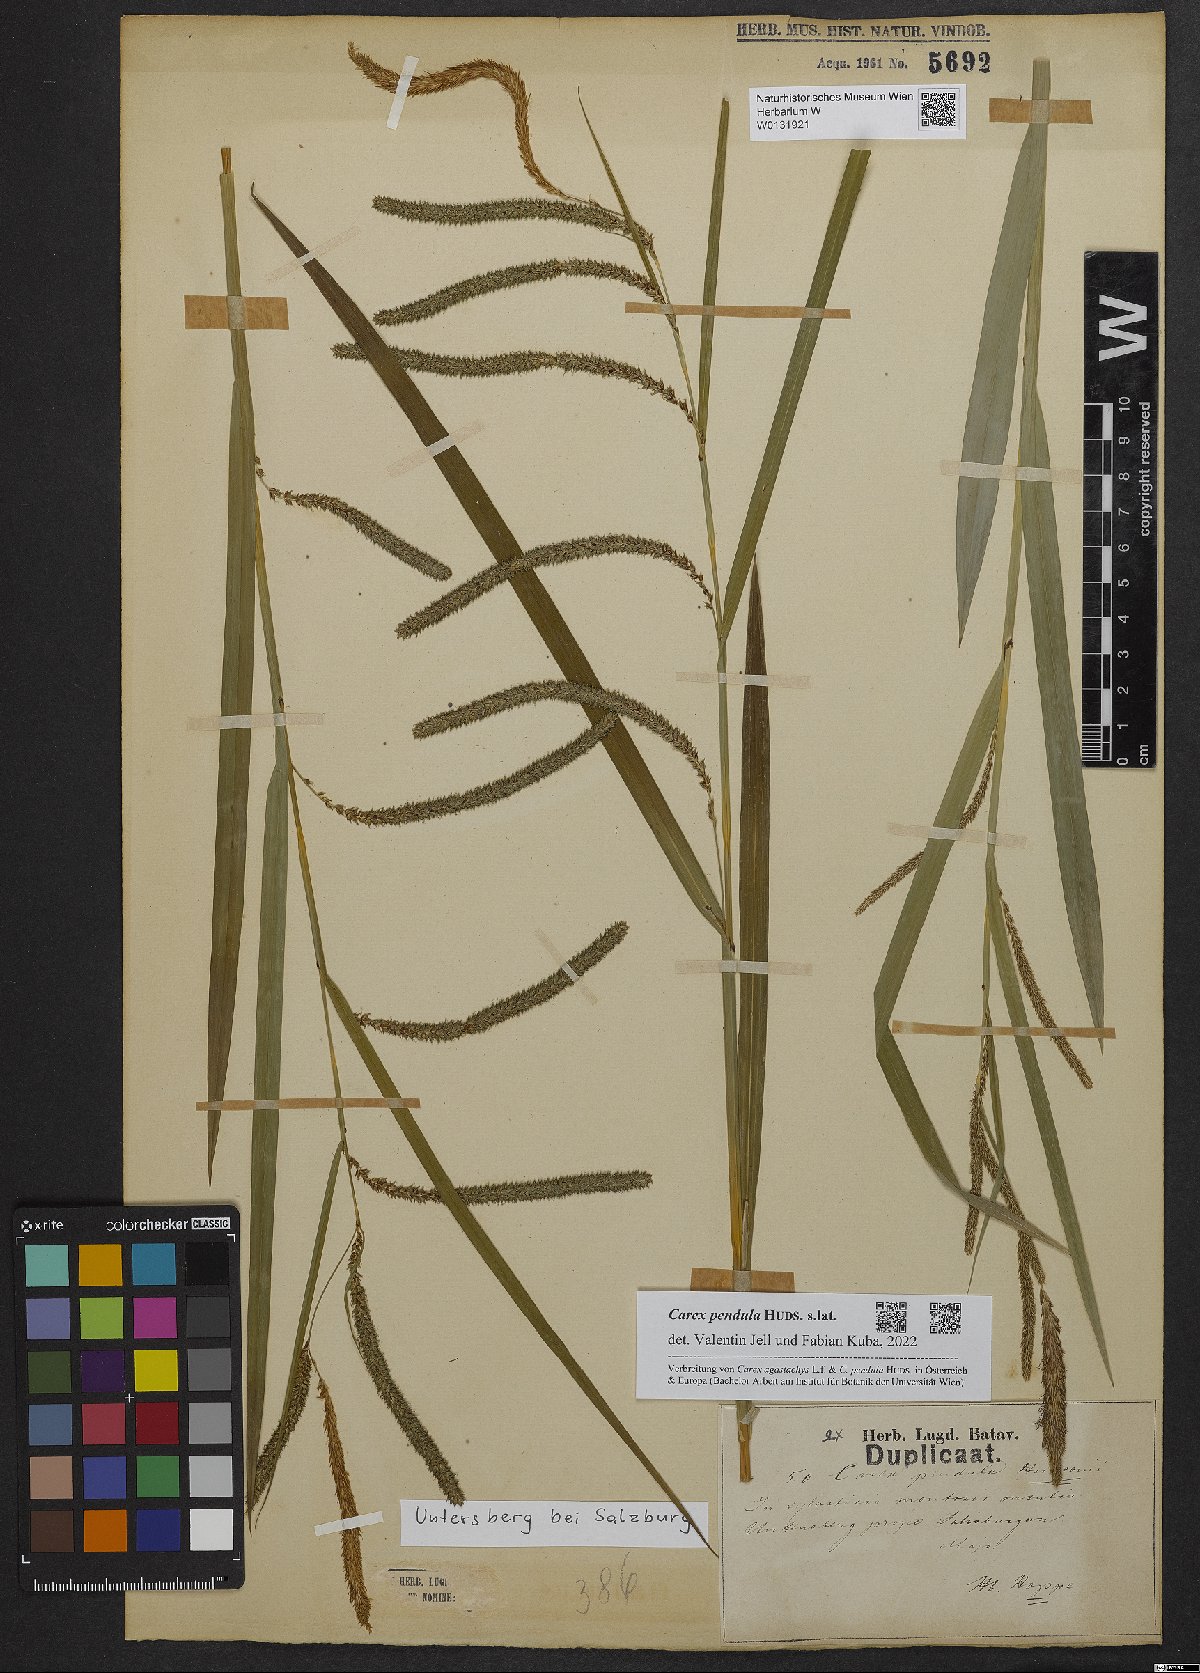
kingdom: Plantae
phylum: Tracheophyta
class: Liliopsida
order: Poales
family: Cyperaceae
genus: Carex
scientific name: Carex pendula
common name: Pendulous sedge
